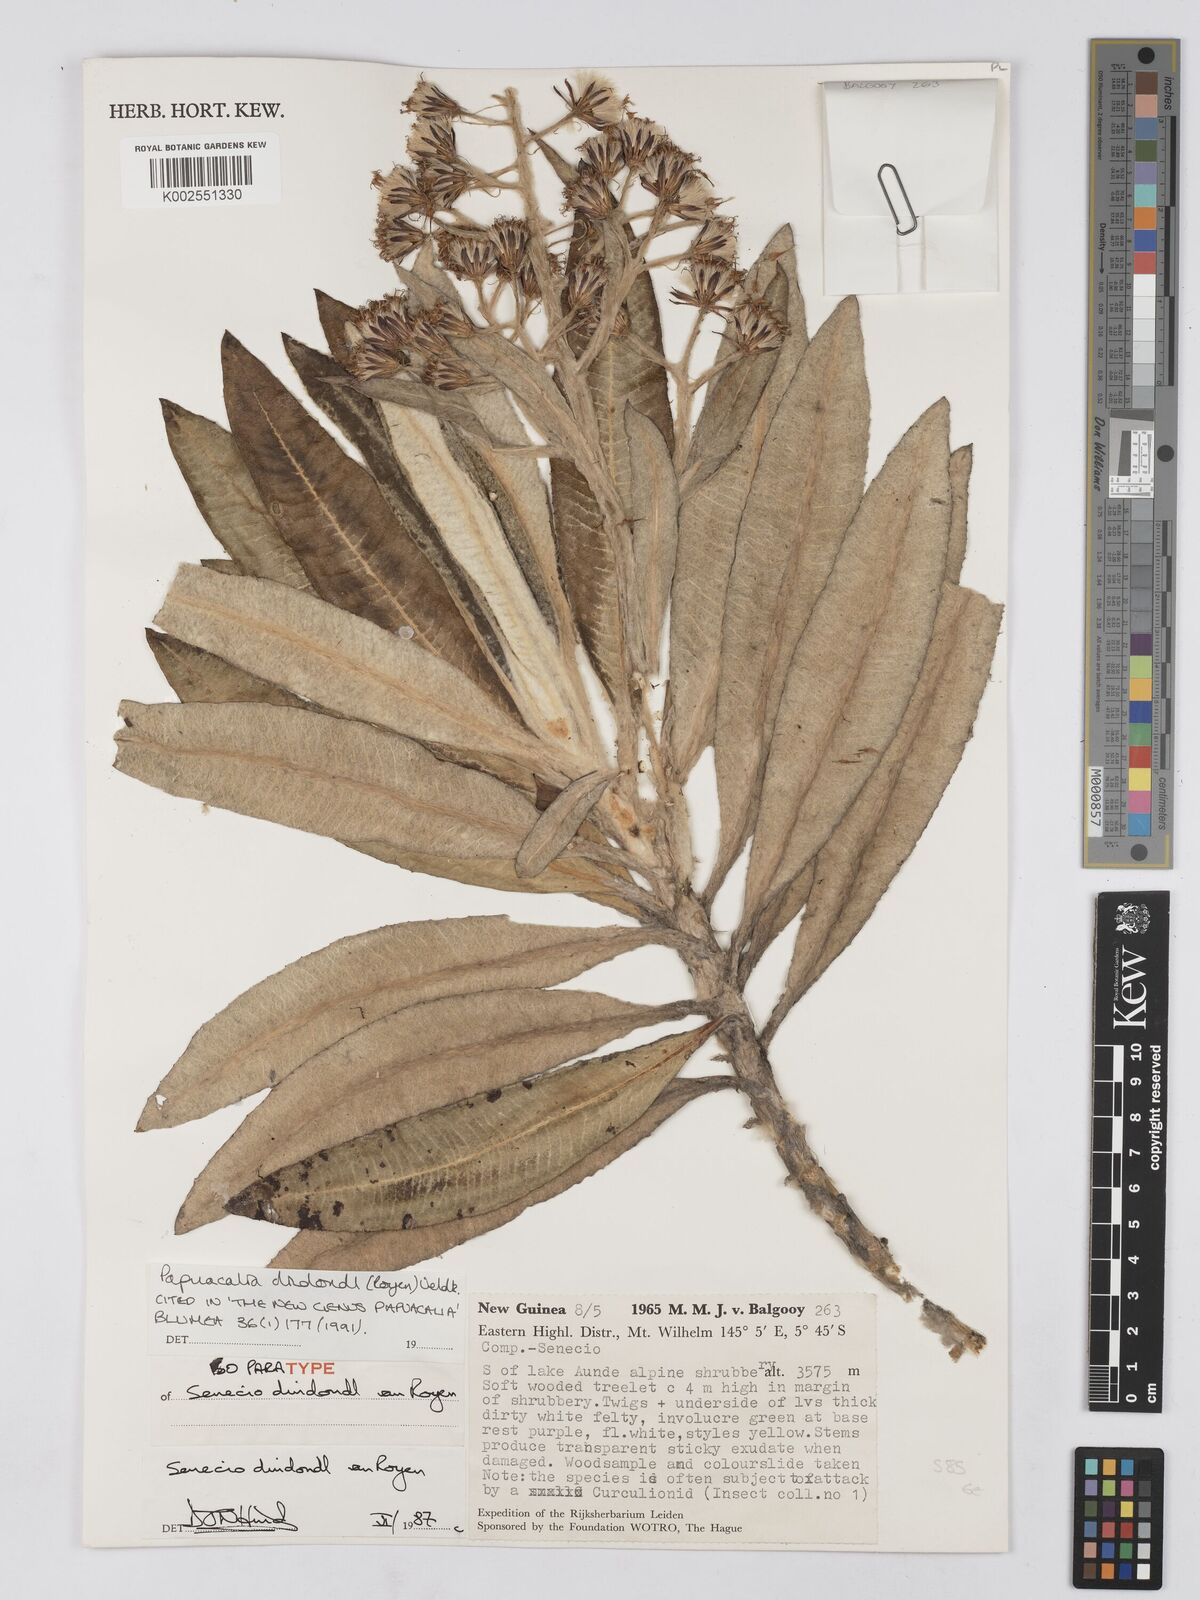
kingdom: Plantae
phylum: Tracheophyta
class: Magnoliopsida
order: Asterales
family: Asteraceae
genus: Papuacalia
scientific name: Papuacalia dindondl
